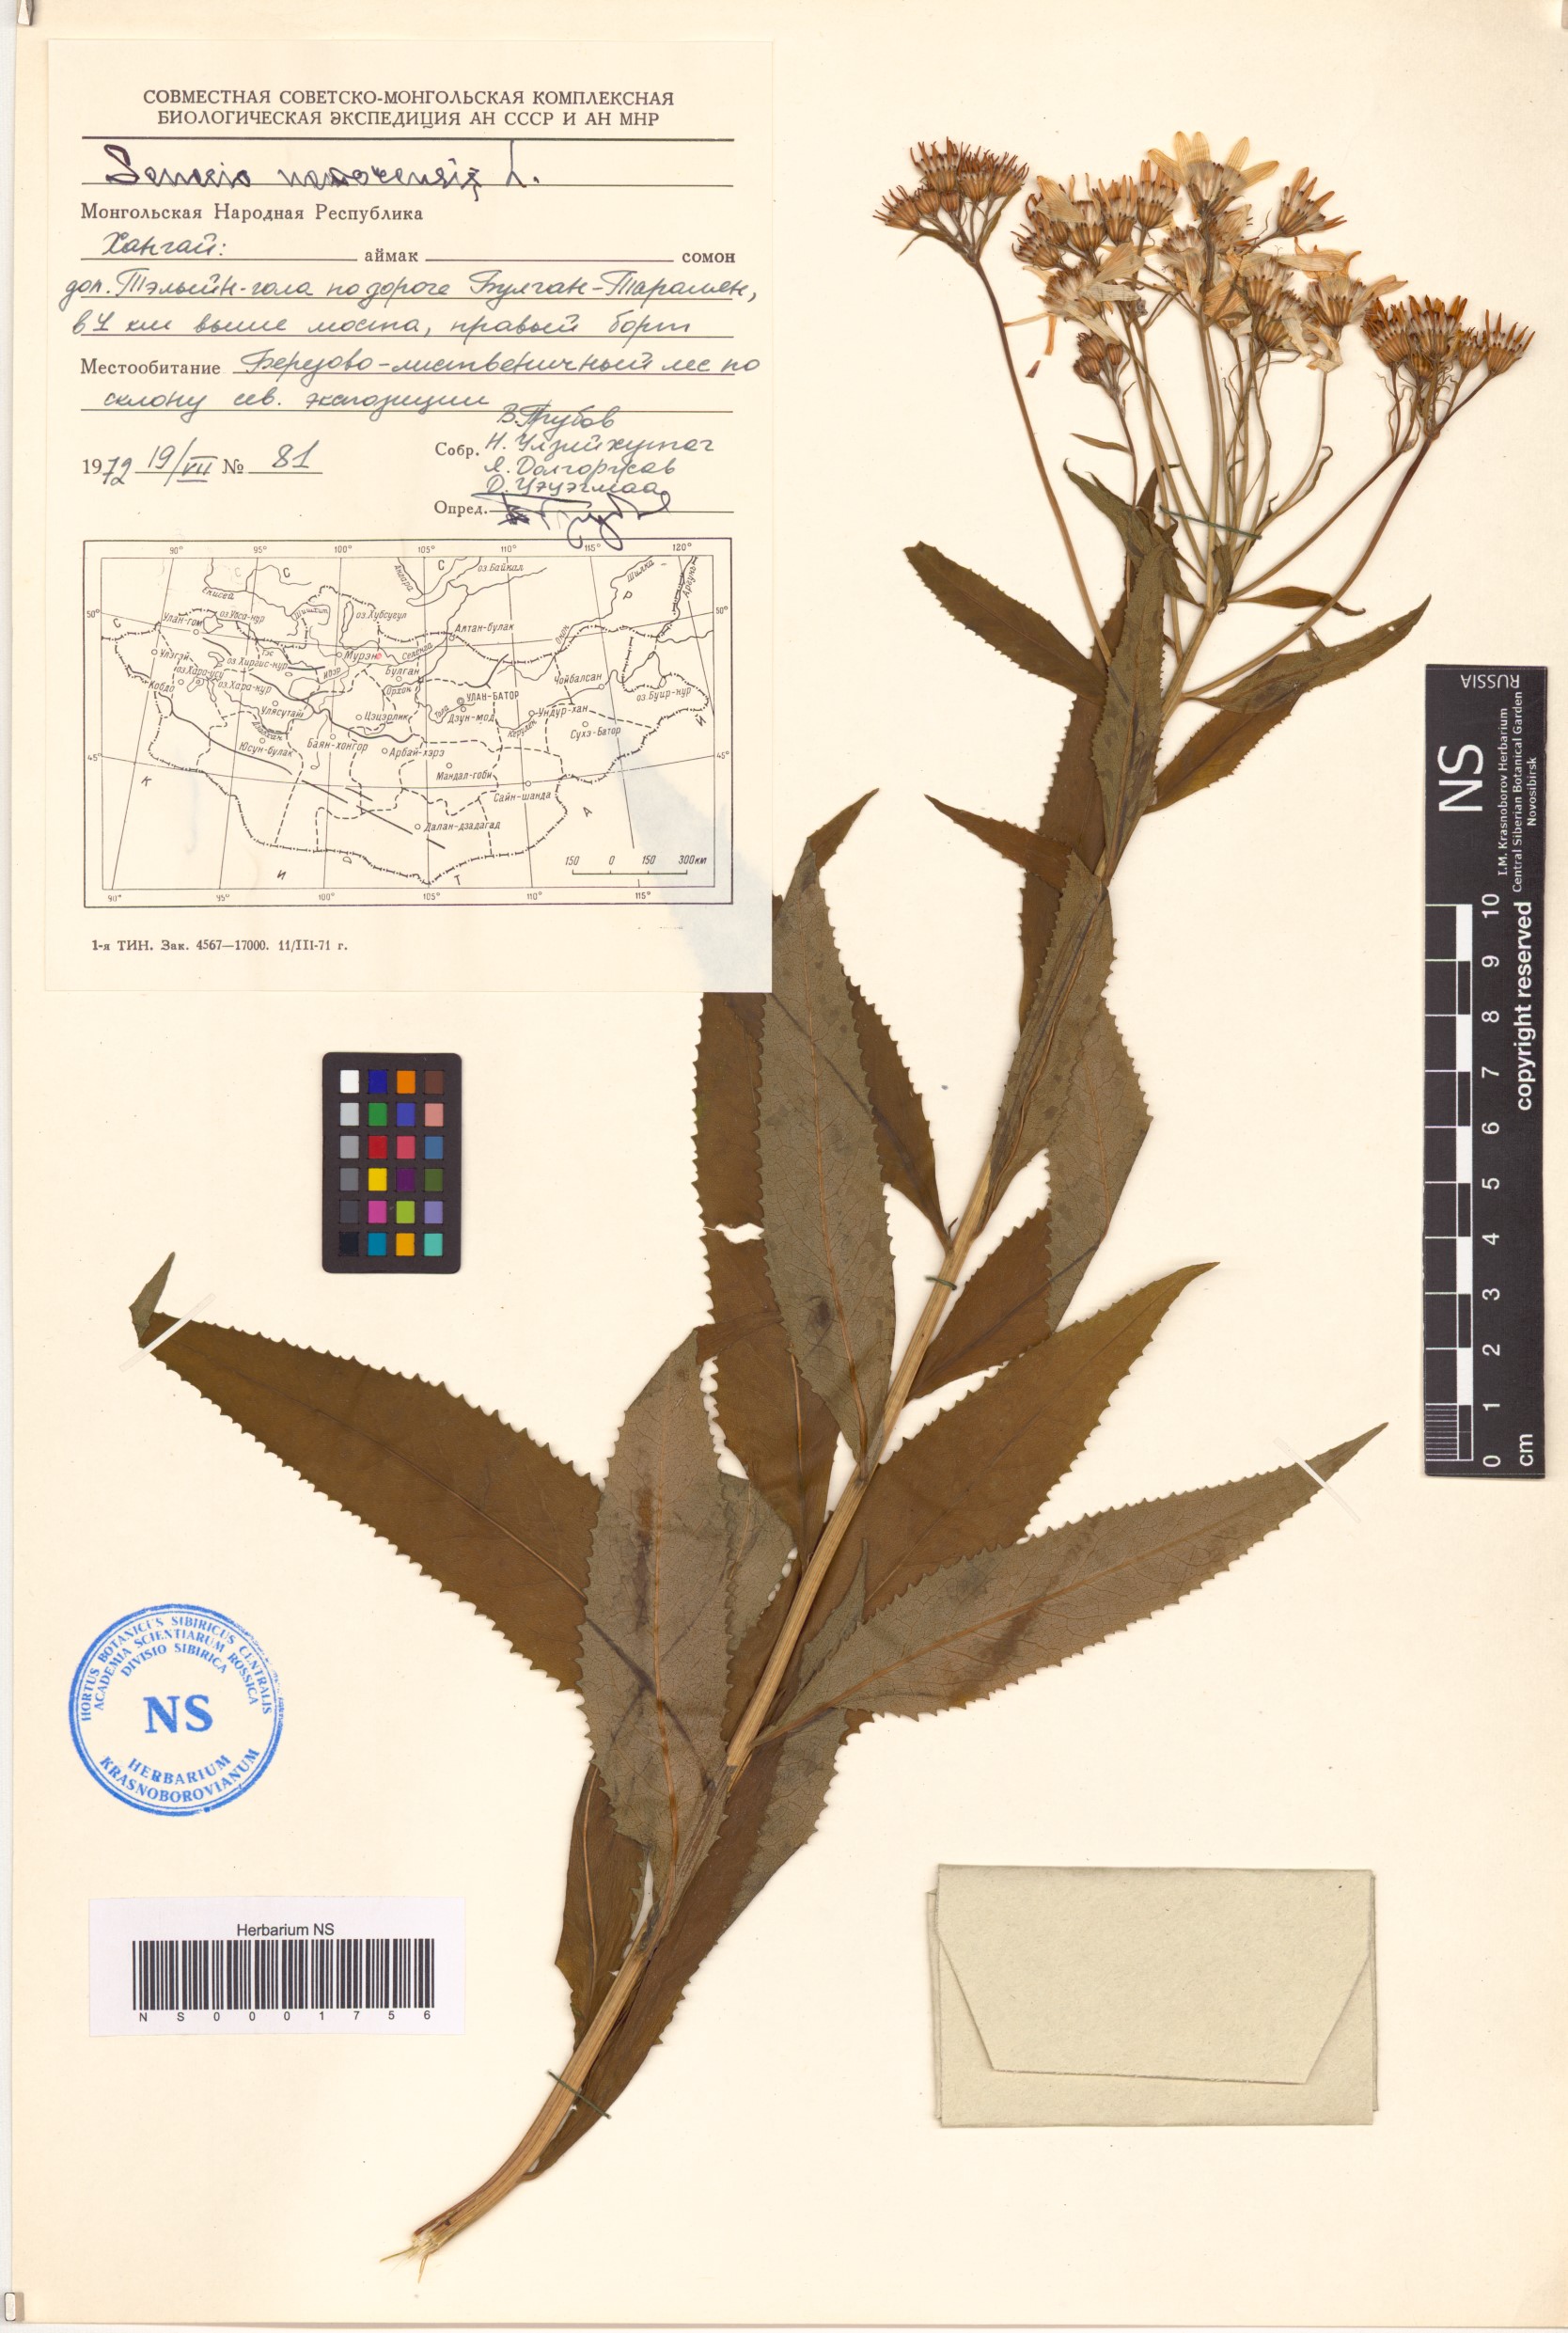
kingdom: Plantae
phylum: Tracheophyta
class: Magnoliopsida
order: Asterales
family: Asteraceae
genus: Senecio
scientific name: Senecio nemorensis
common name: Alpine ragwort
